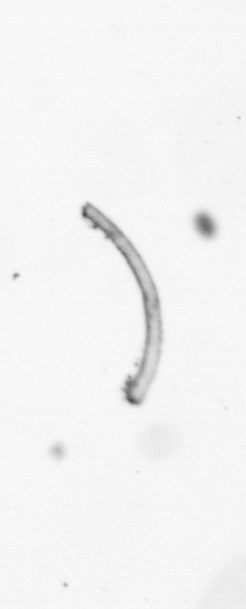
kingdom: Chromista
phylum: Ochrophyta
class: Bacillariophyceae
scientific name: Bacillariophyceae
